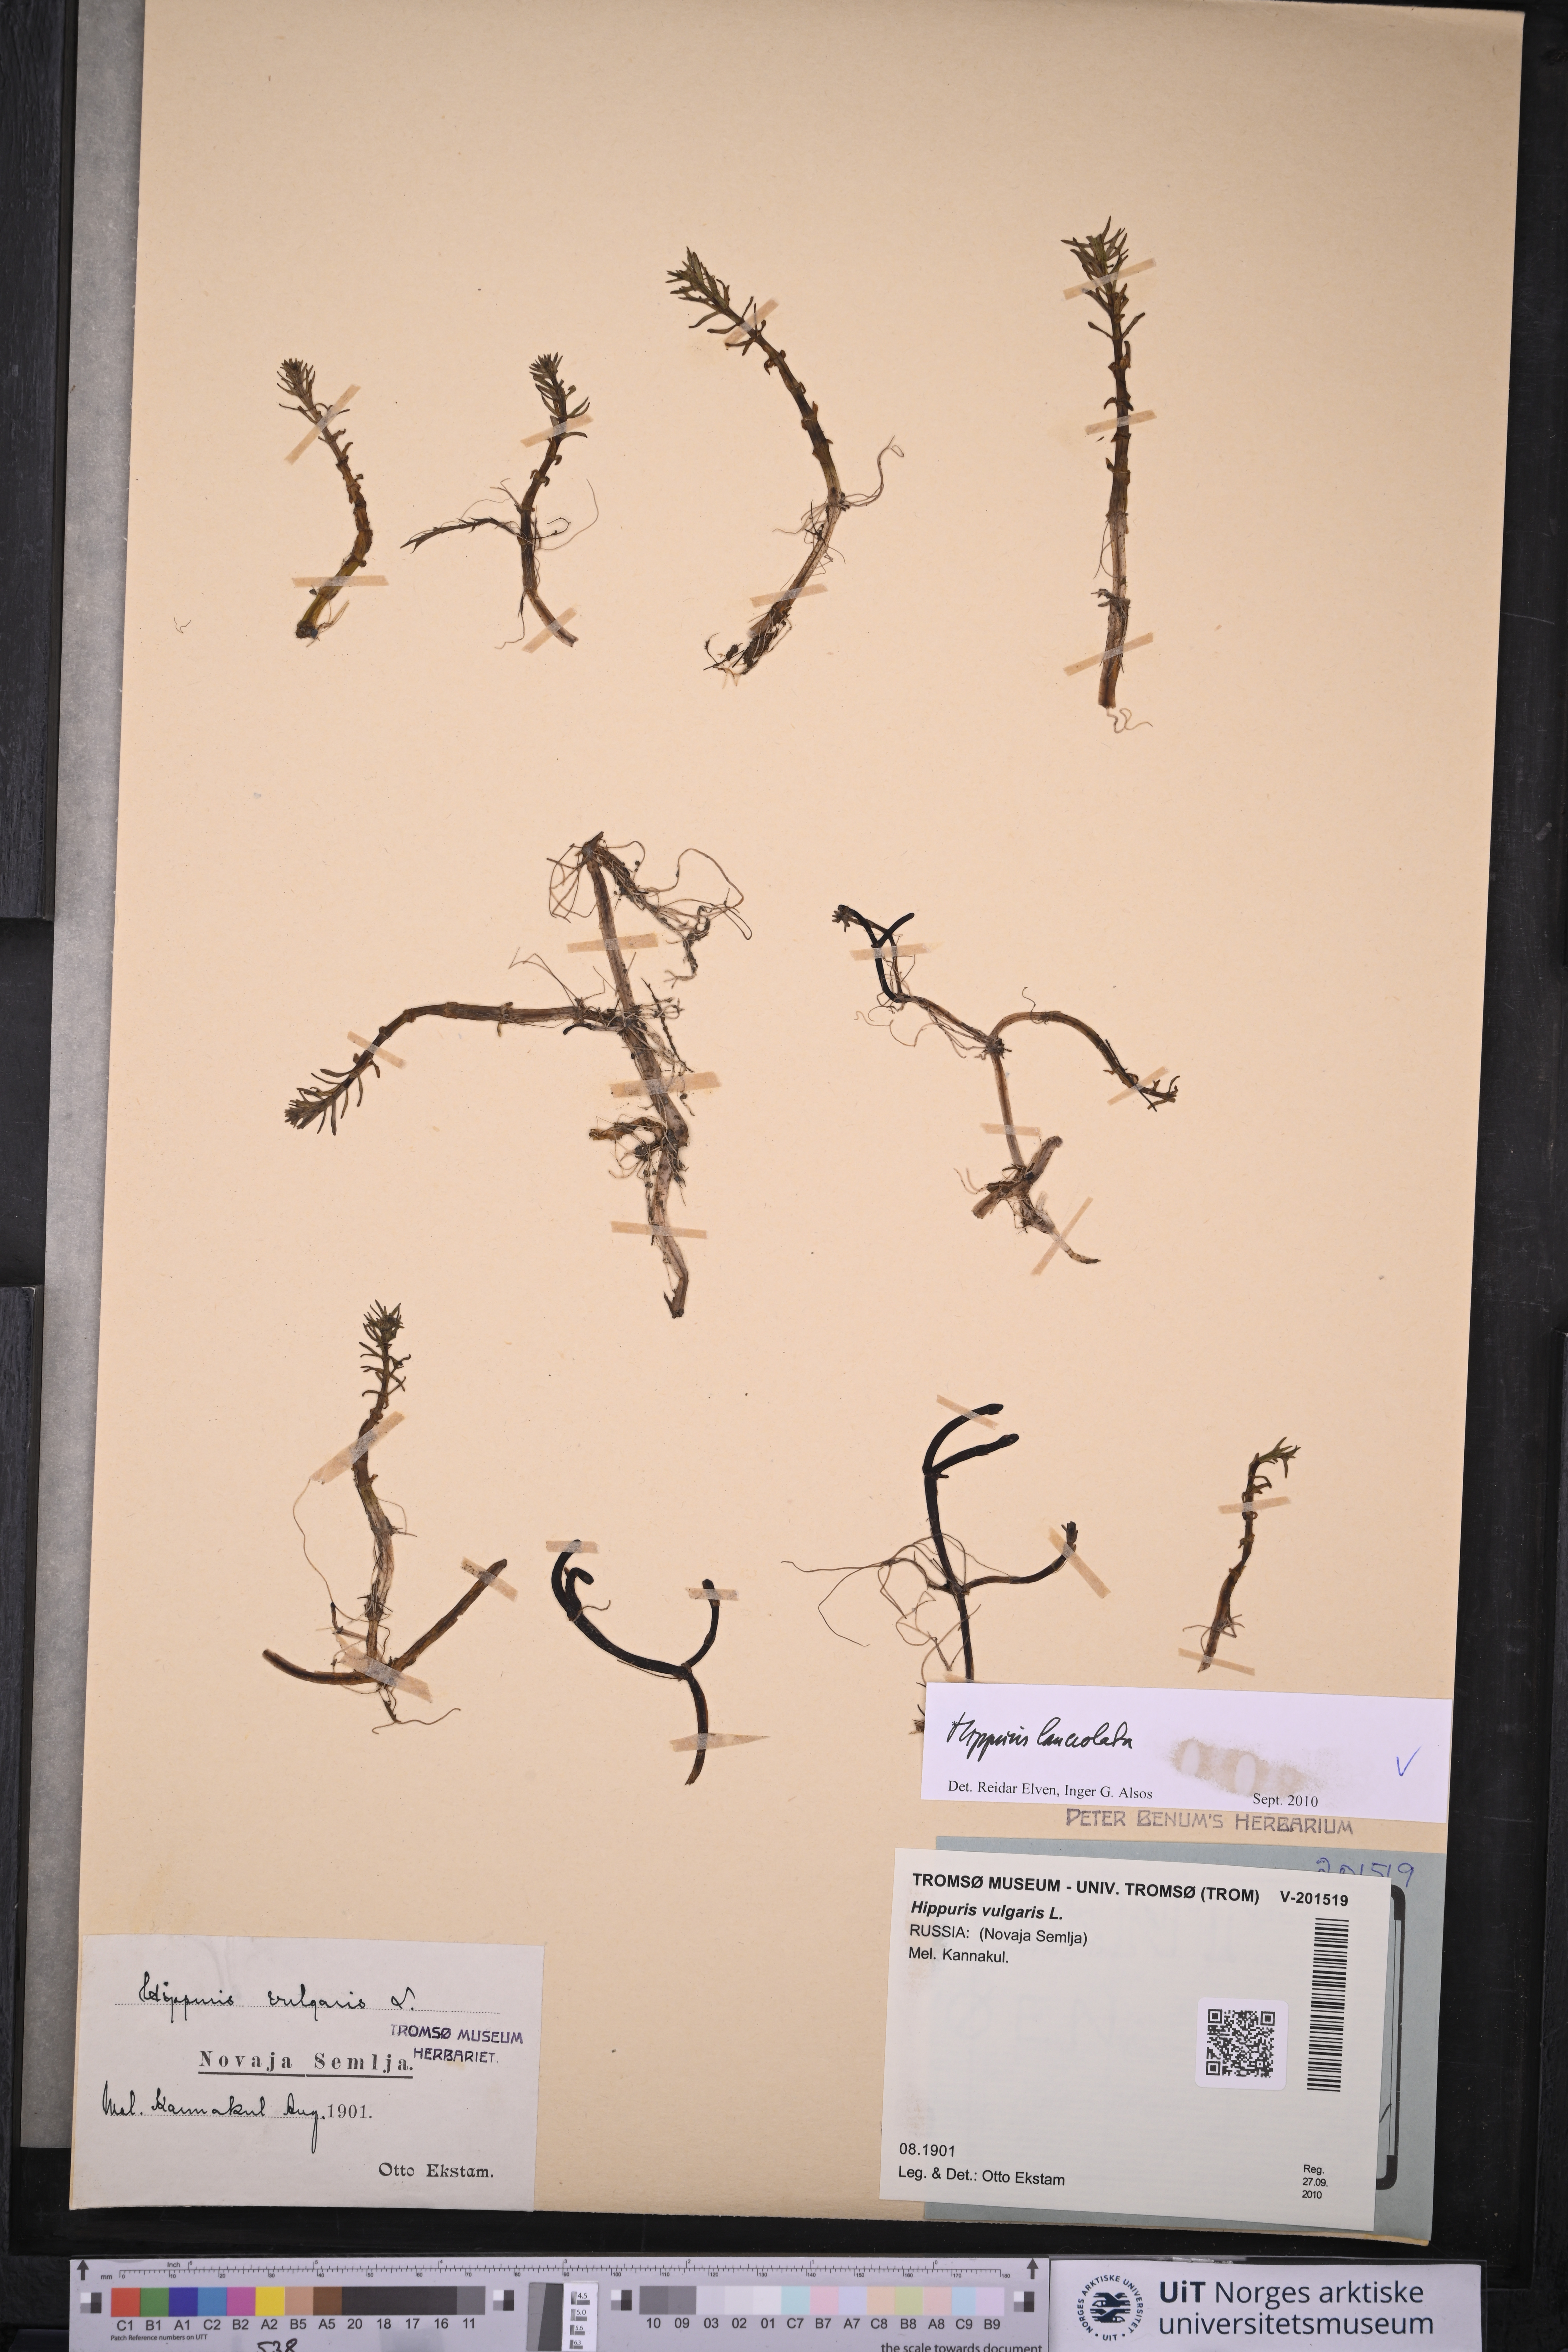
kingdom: Plantae
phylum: Tracheophyta
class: Magnoliopsida
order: Lamiales
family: Plantaginaceae
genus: Hippuris
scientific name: Hippuris lanceolata
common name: Lance-leaved mare's-tail
